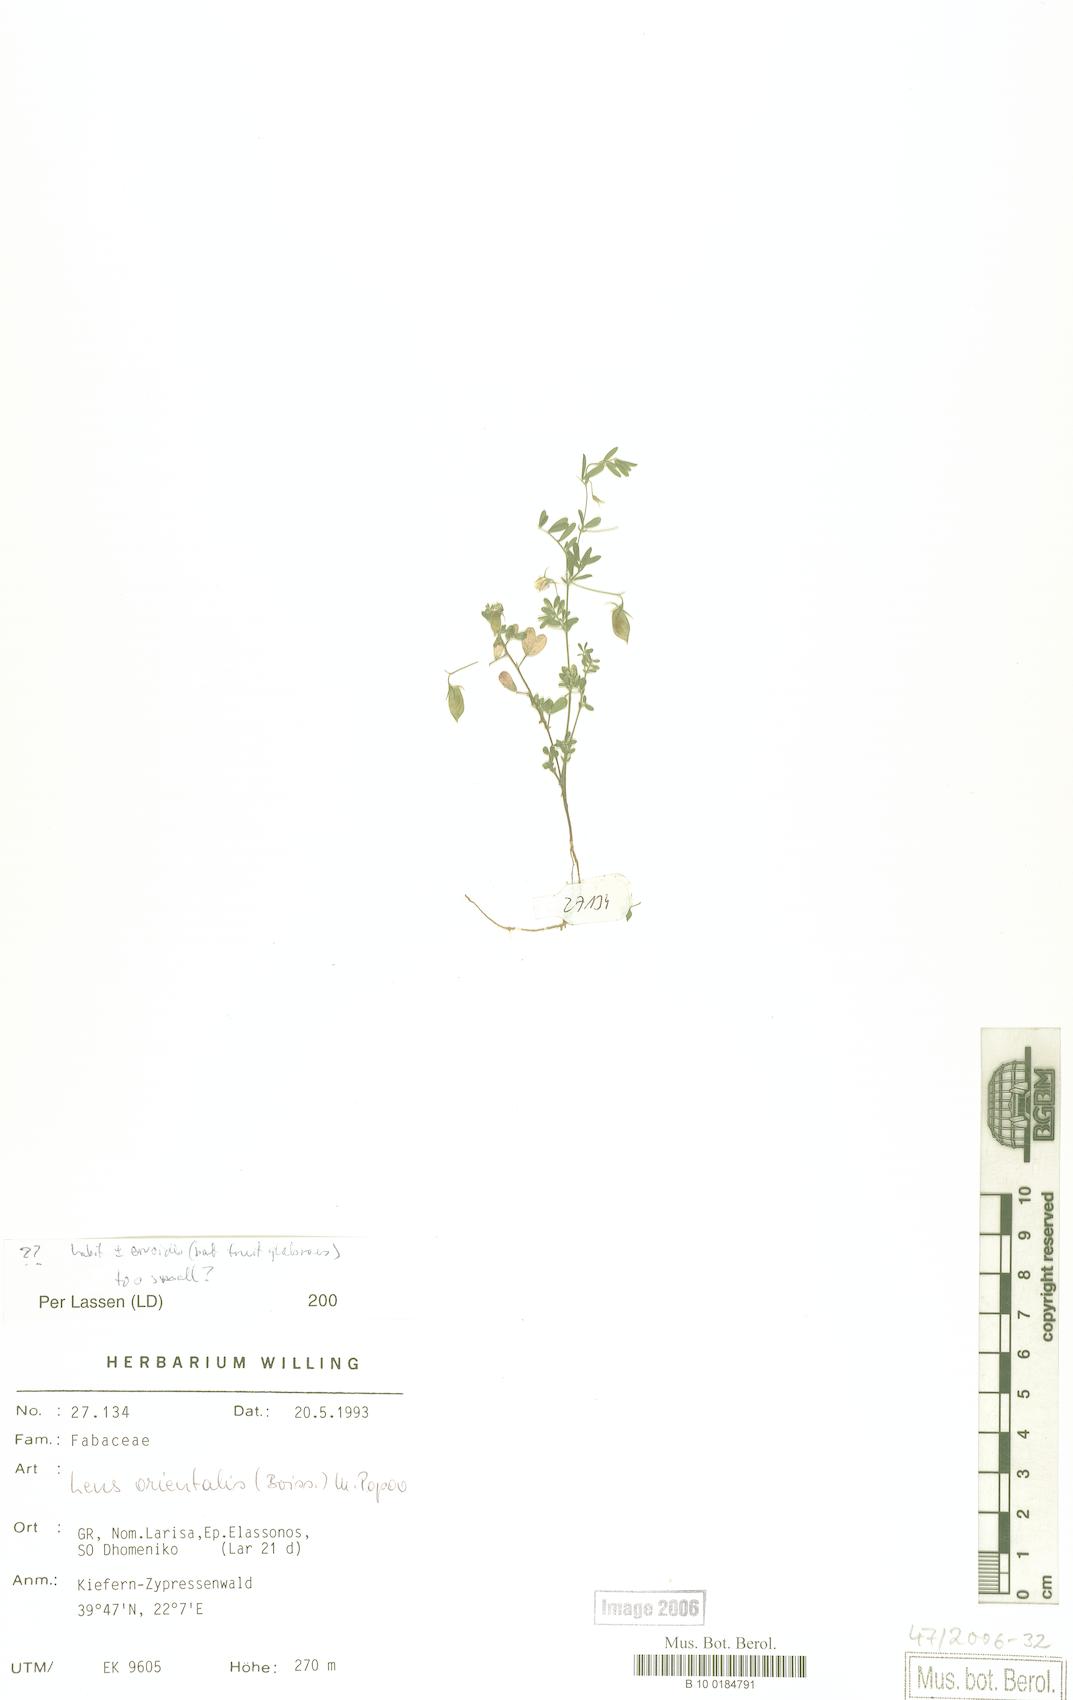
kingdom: Plantae
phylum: Tracheophyta
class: Magnoliopsida
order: Fabales
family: Fabaceae
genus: Vicia
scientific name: Vicia orientalis
